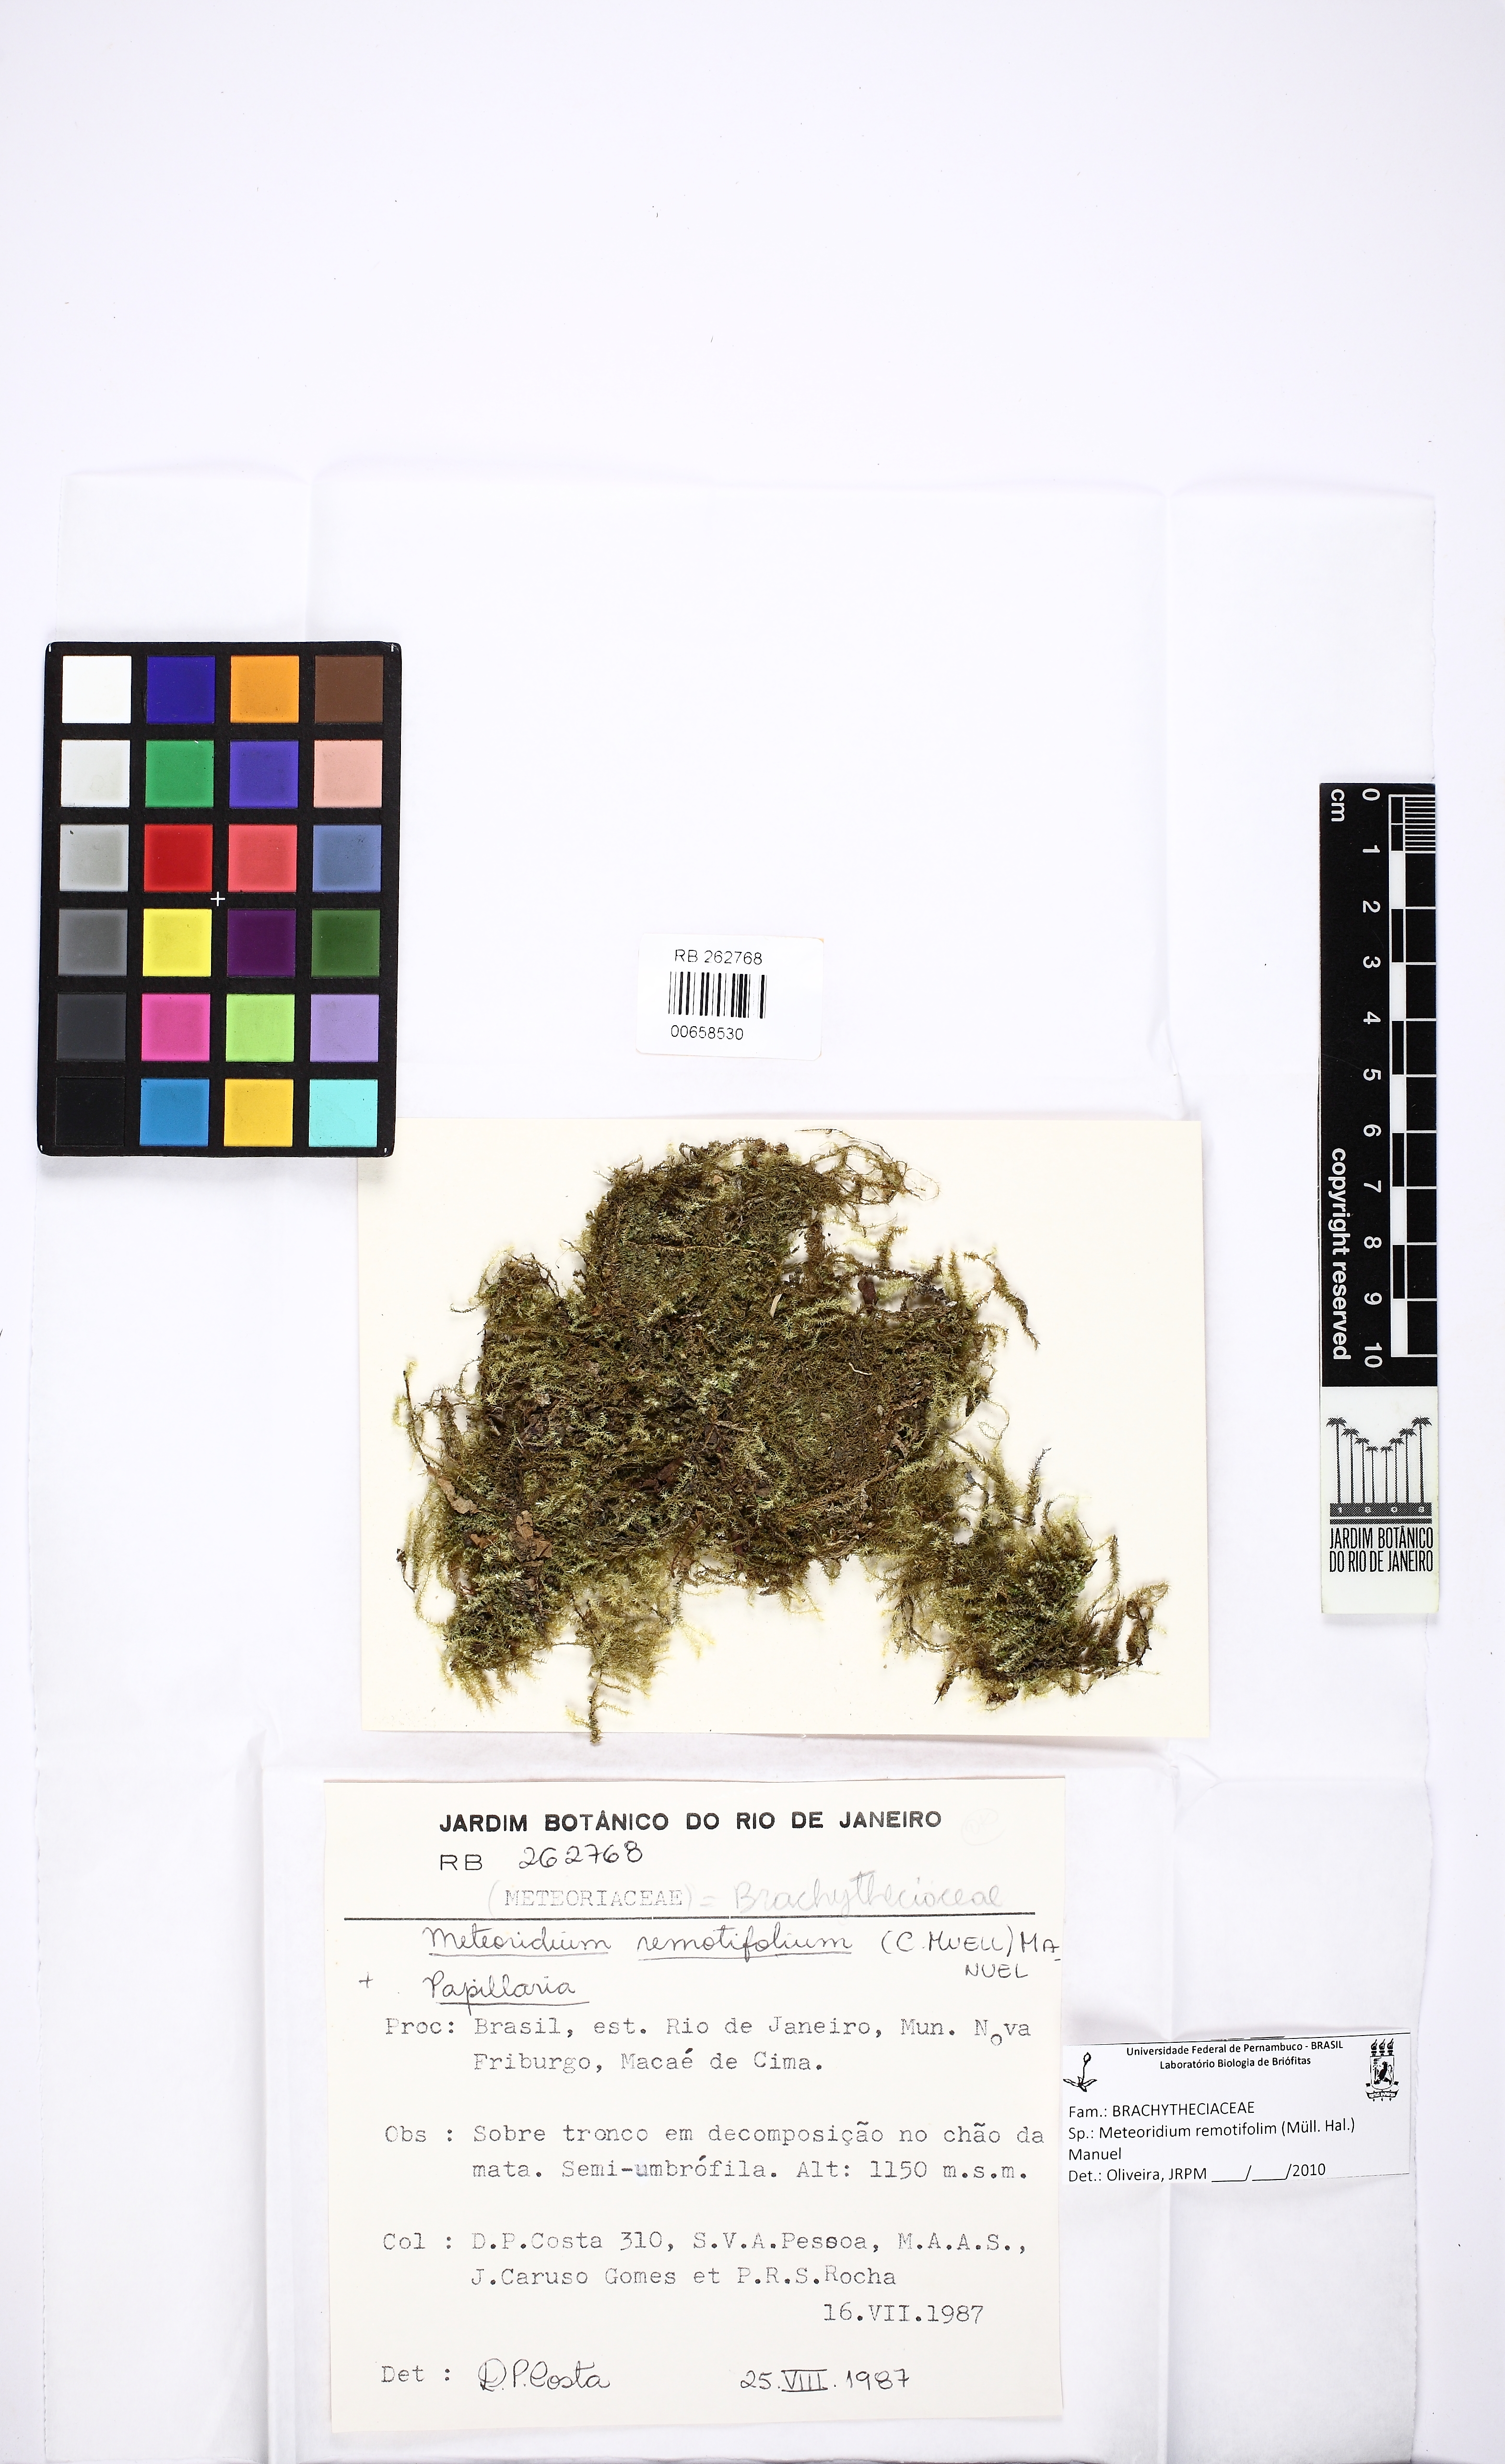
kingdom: Plantae
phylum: Bryophyta
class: Bryopsida
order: Hypnales
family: Brachytheciaceae
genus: Meteoridium
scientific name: Meteoridium remotifolium
